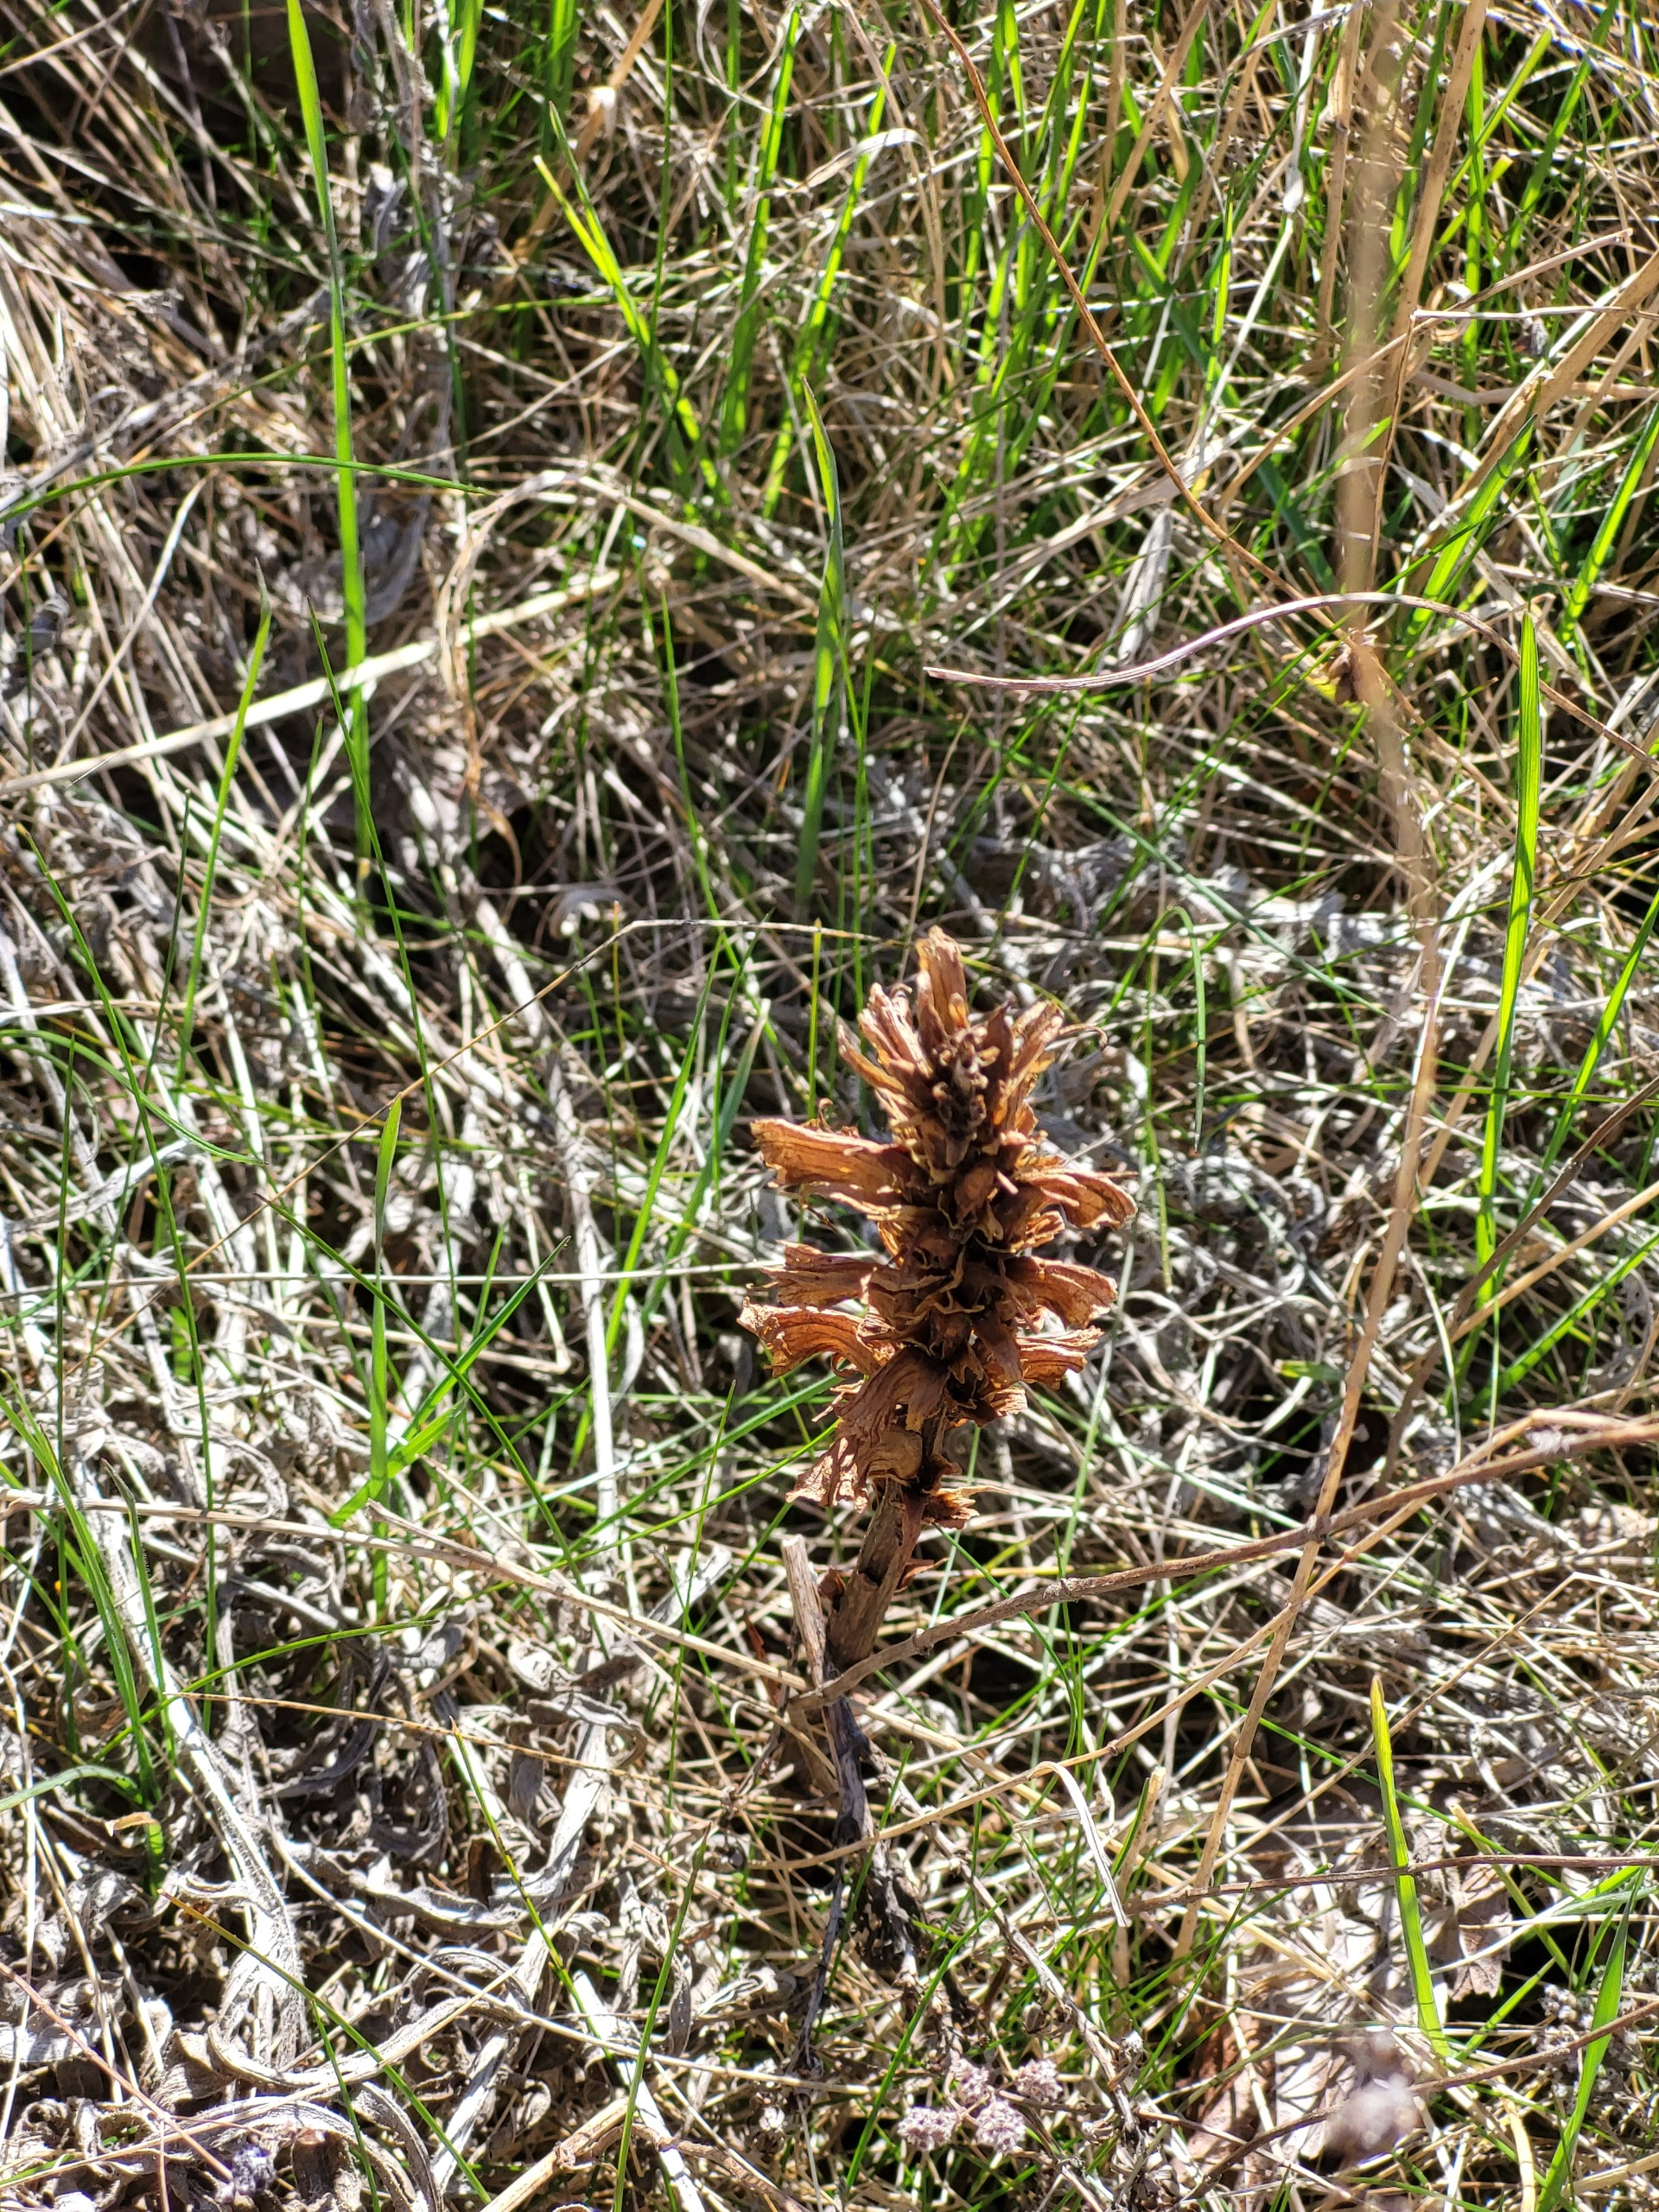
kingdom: Plantae
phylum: Tracheophyta
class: Magnoliopsida
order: Lamiales
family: Orobanchaceae
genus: Orobanche
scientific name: Orobanche elatior
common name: Stor gyvelkvæler
